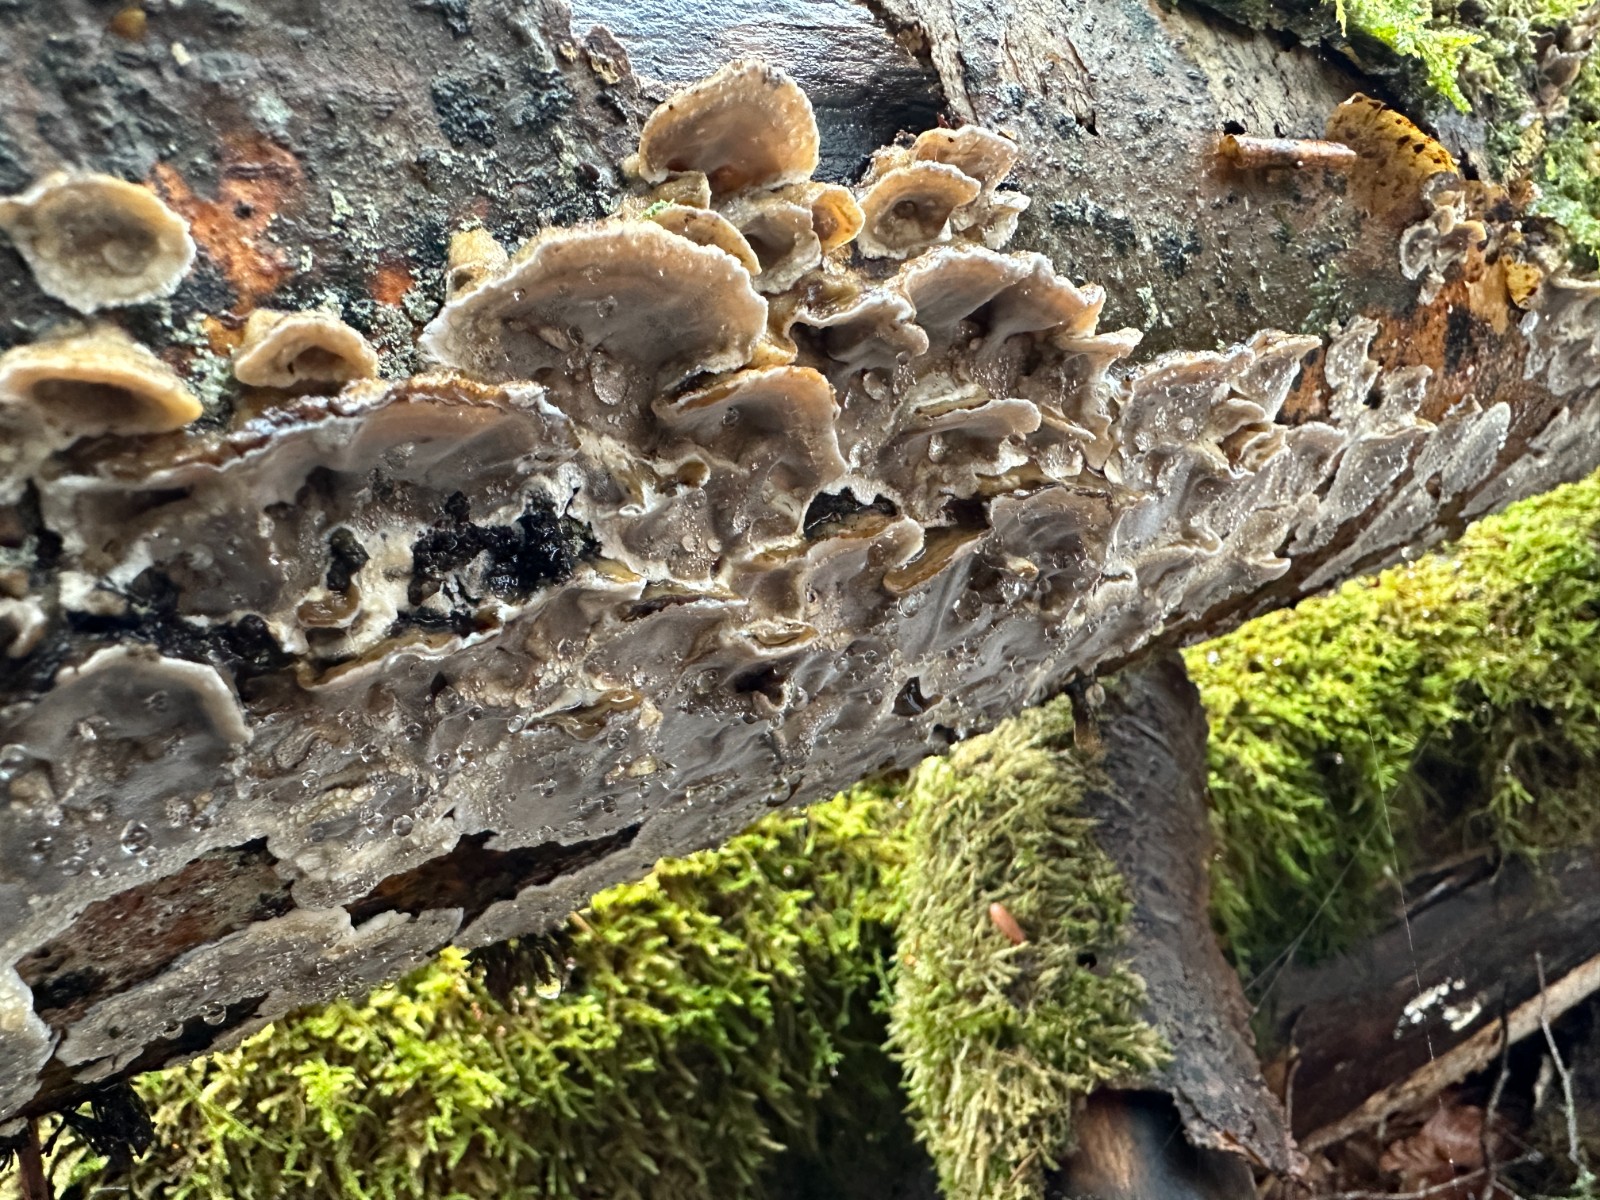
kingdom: Fungi
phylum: Basidiomycota
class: Agaricomycetes
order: Polyporales
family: Phanerochaetaceae
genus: Bjerkandera
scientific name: Bjerkandera adusta
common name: sveden sodporesvamp
